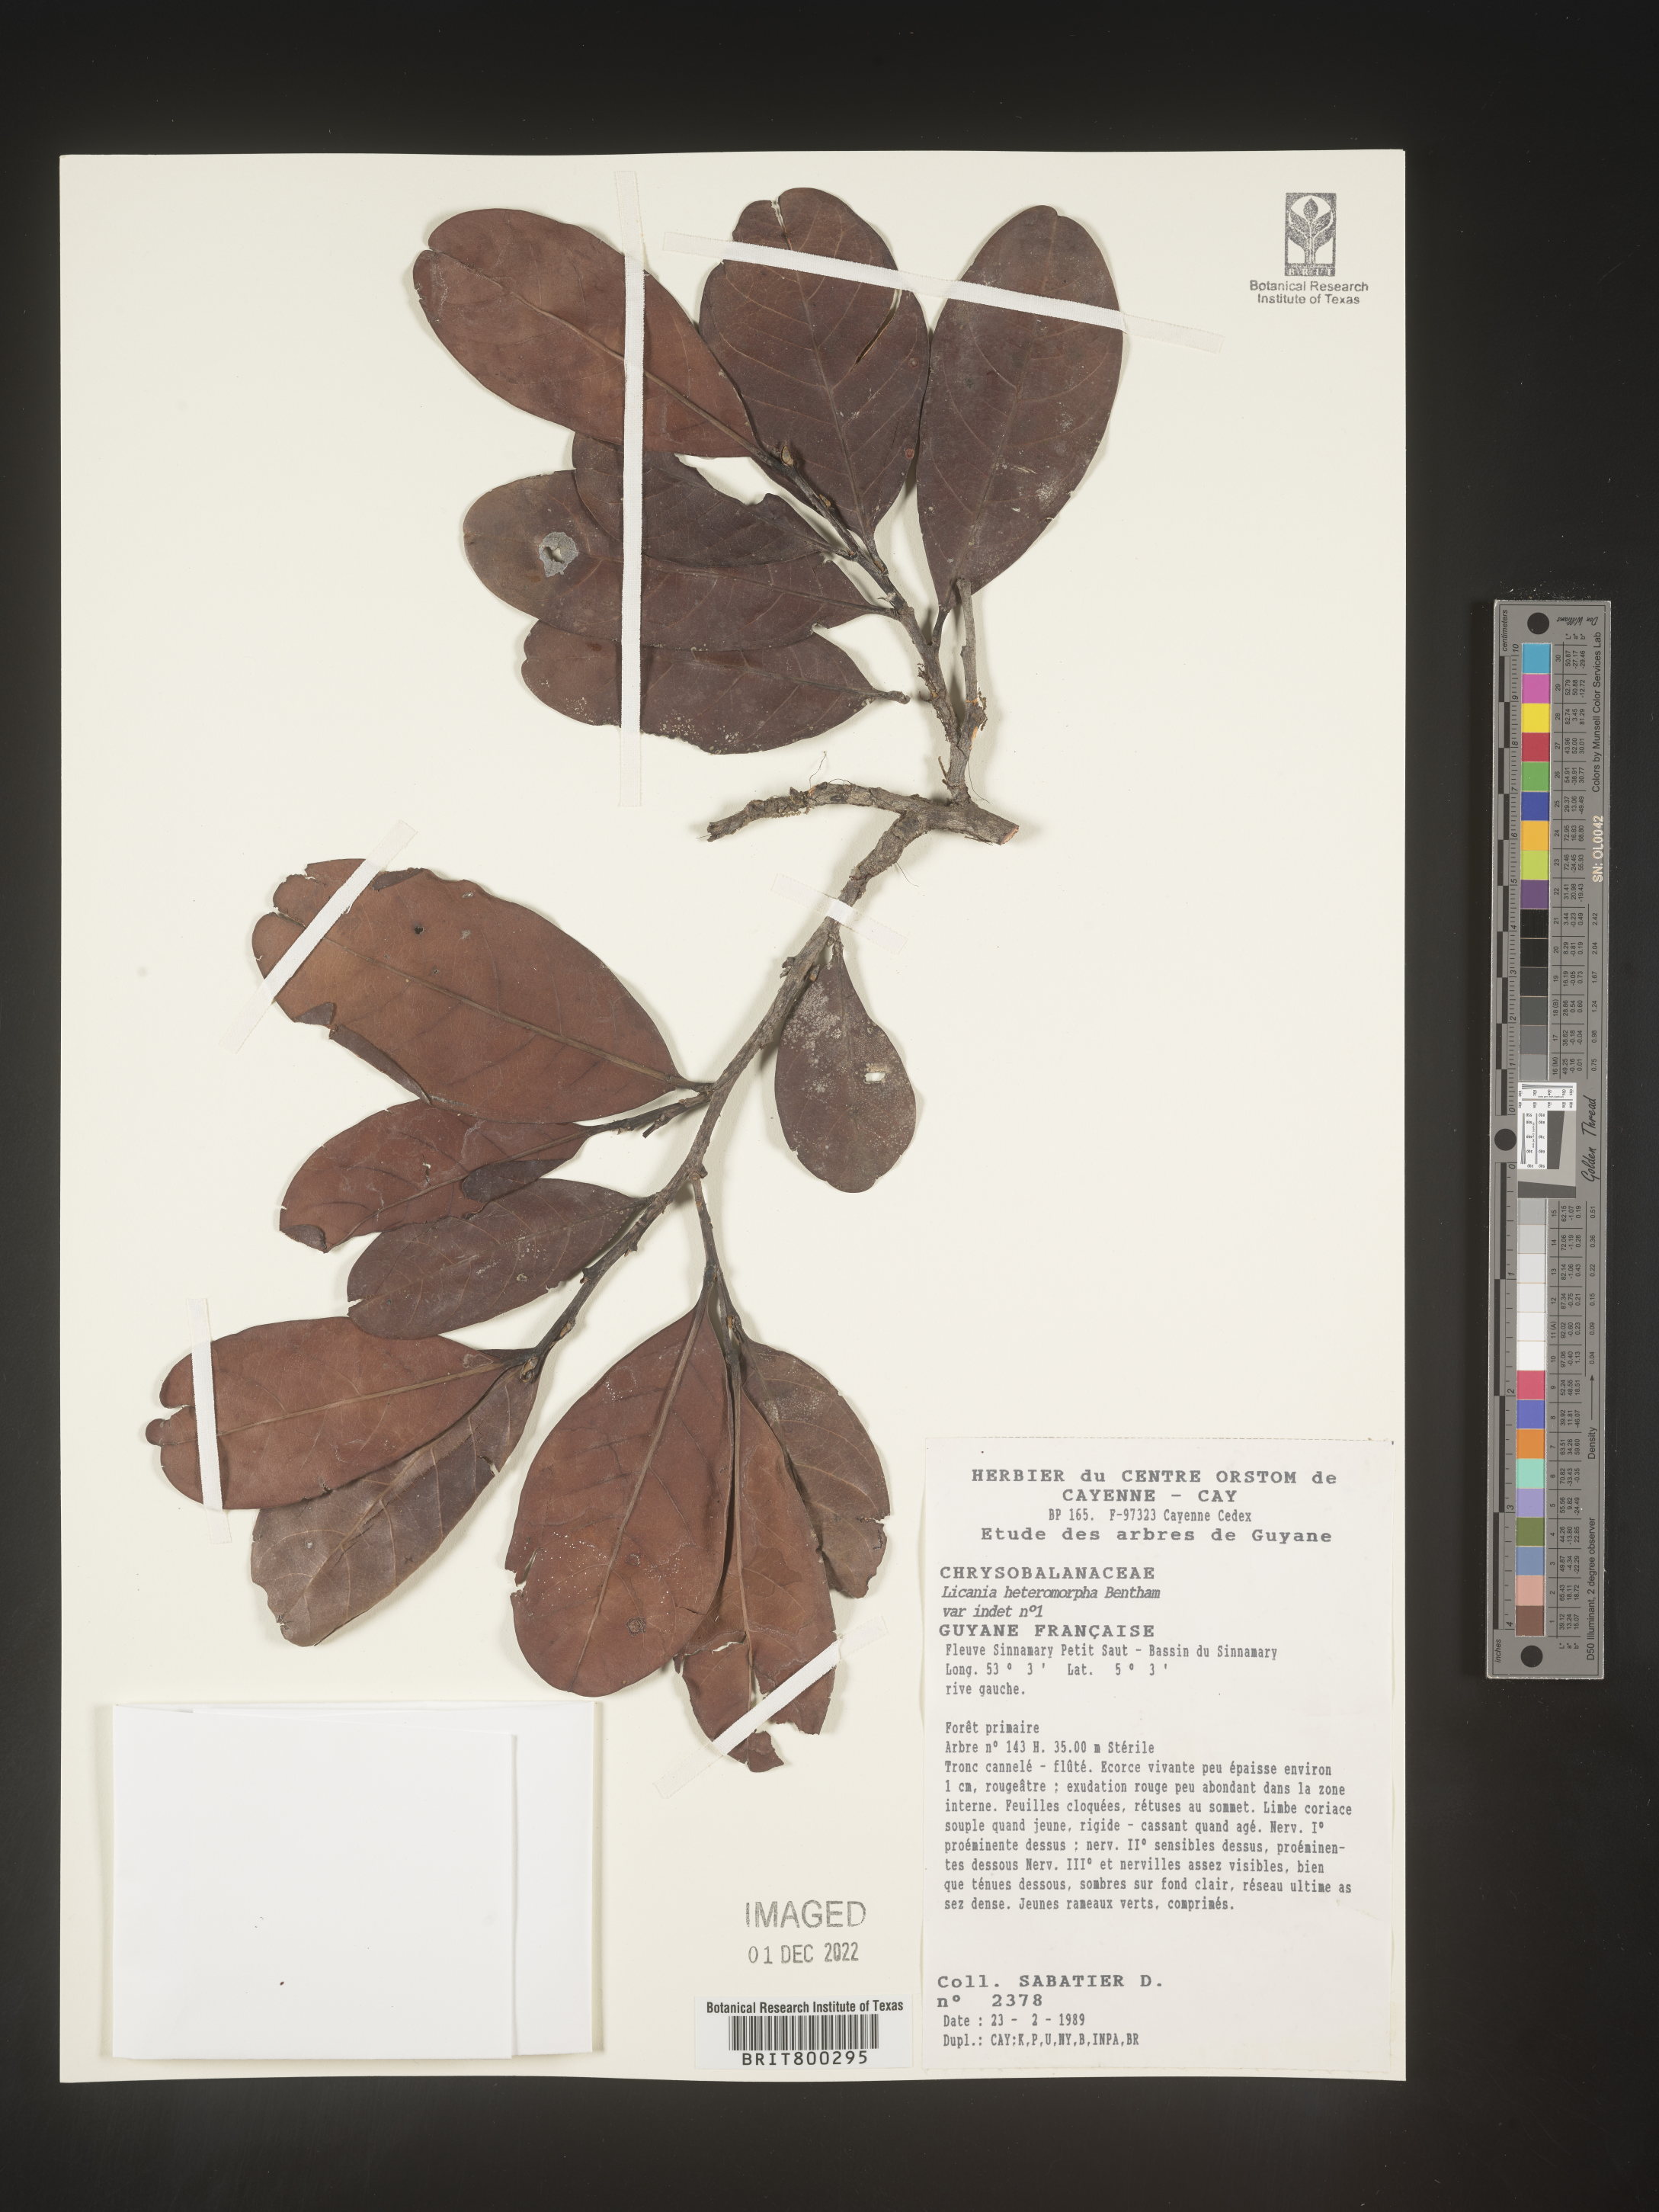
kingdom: Plantae
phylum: Tracheophyta
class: Magnoliopsida
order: Malpighiales
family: Chrysobalanaceae
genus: Geobalanus
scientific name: Geobalanus oblongifolius
